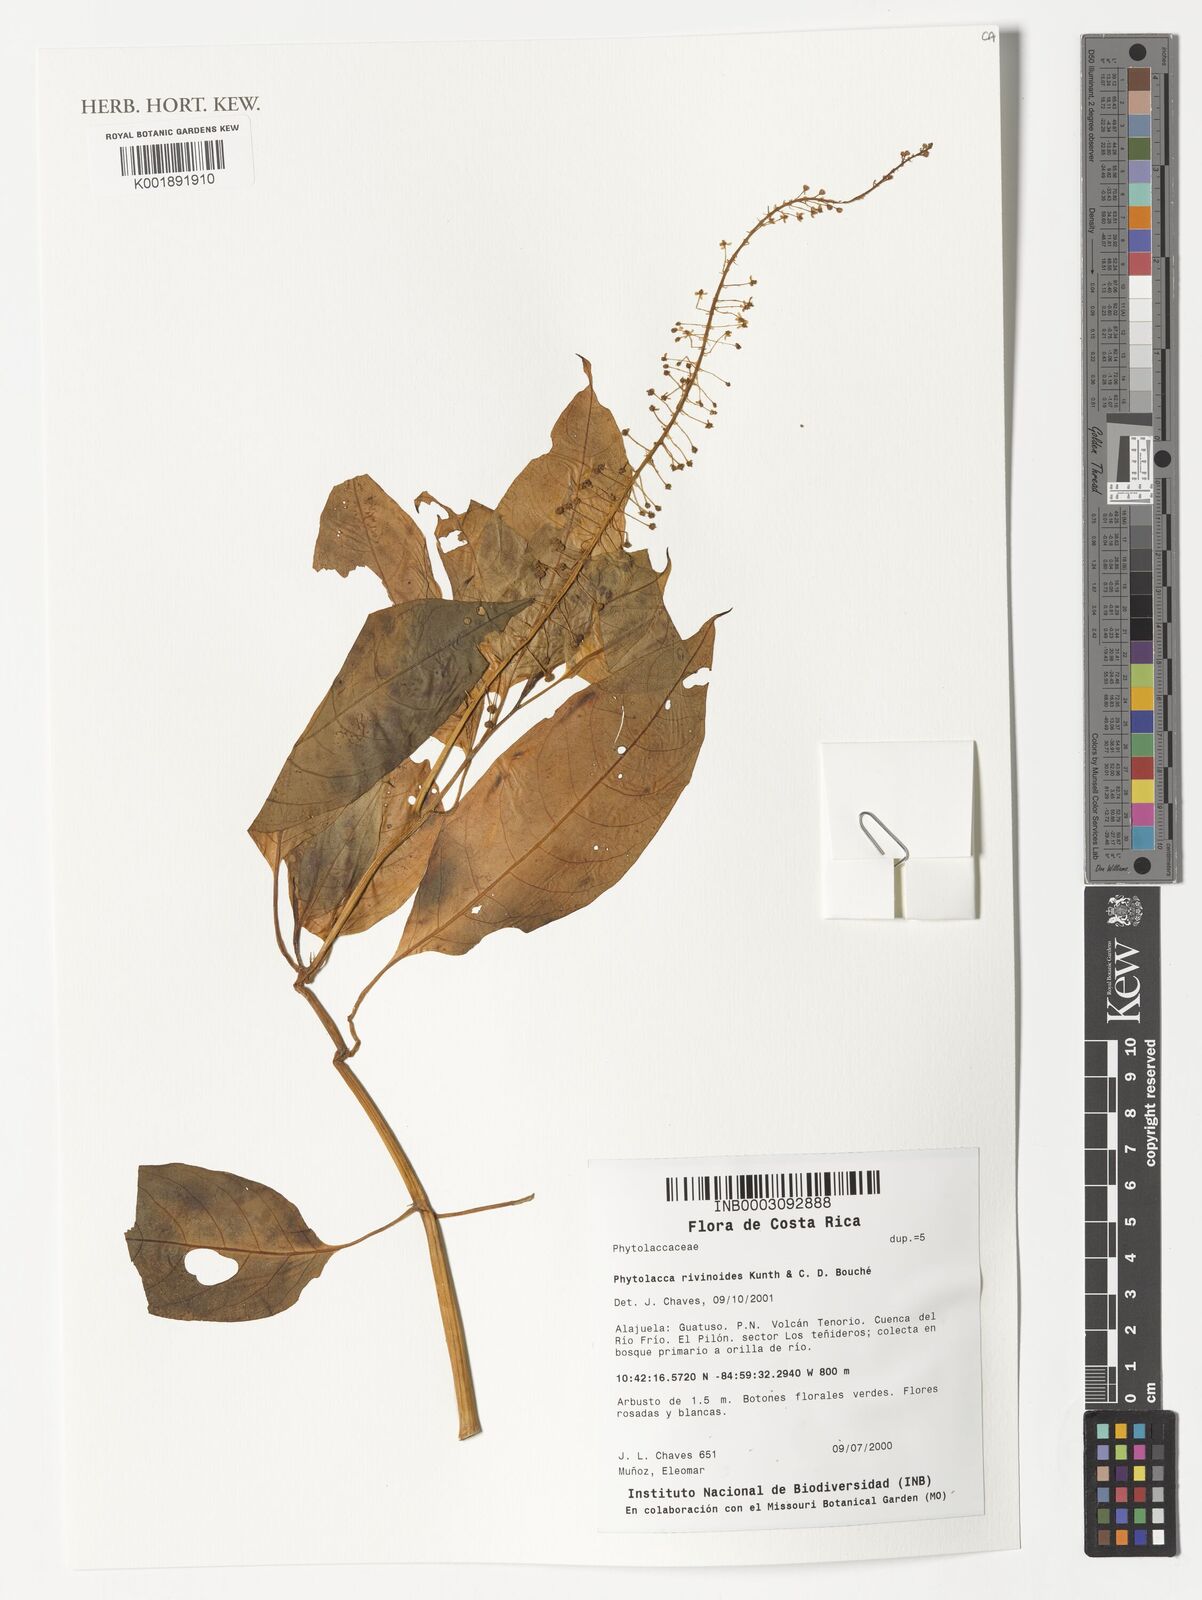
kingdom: Plantae
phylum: Tracheophyta
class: Magnoliopsida
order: Caryophyllales
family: Phytolaccaceae
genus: Phytolacca
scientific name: Phytolacca rivinoides
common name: Venezuelan pokeweed
